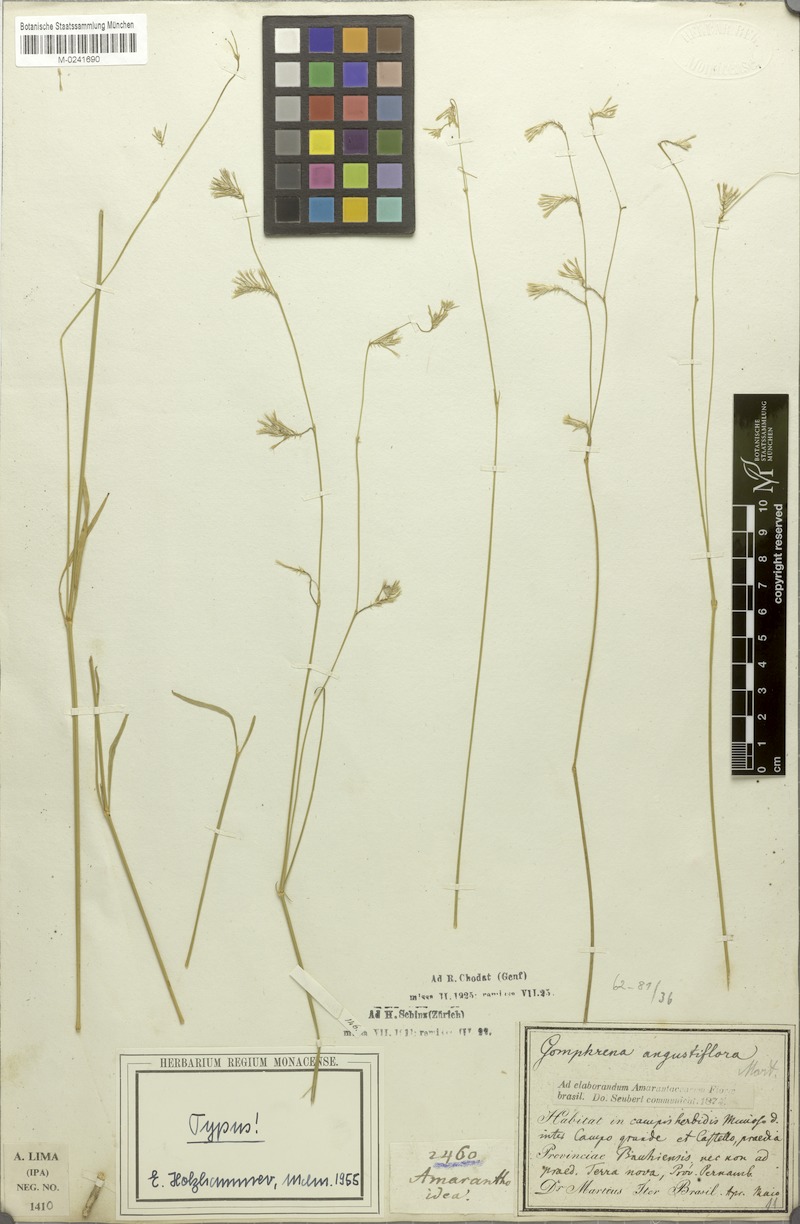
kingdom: Plantae
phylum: Tracheophyta
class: Magnoliopsida
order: Caryophyllales
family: Amaranthaceae
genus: Gomphrena
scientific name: Gomphrena angustiflora
